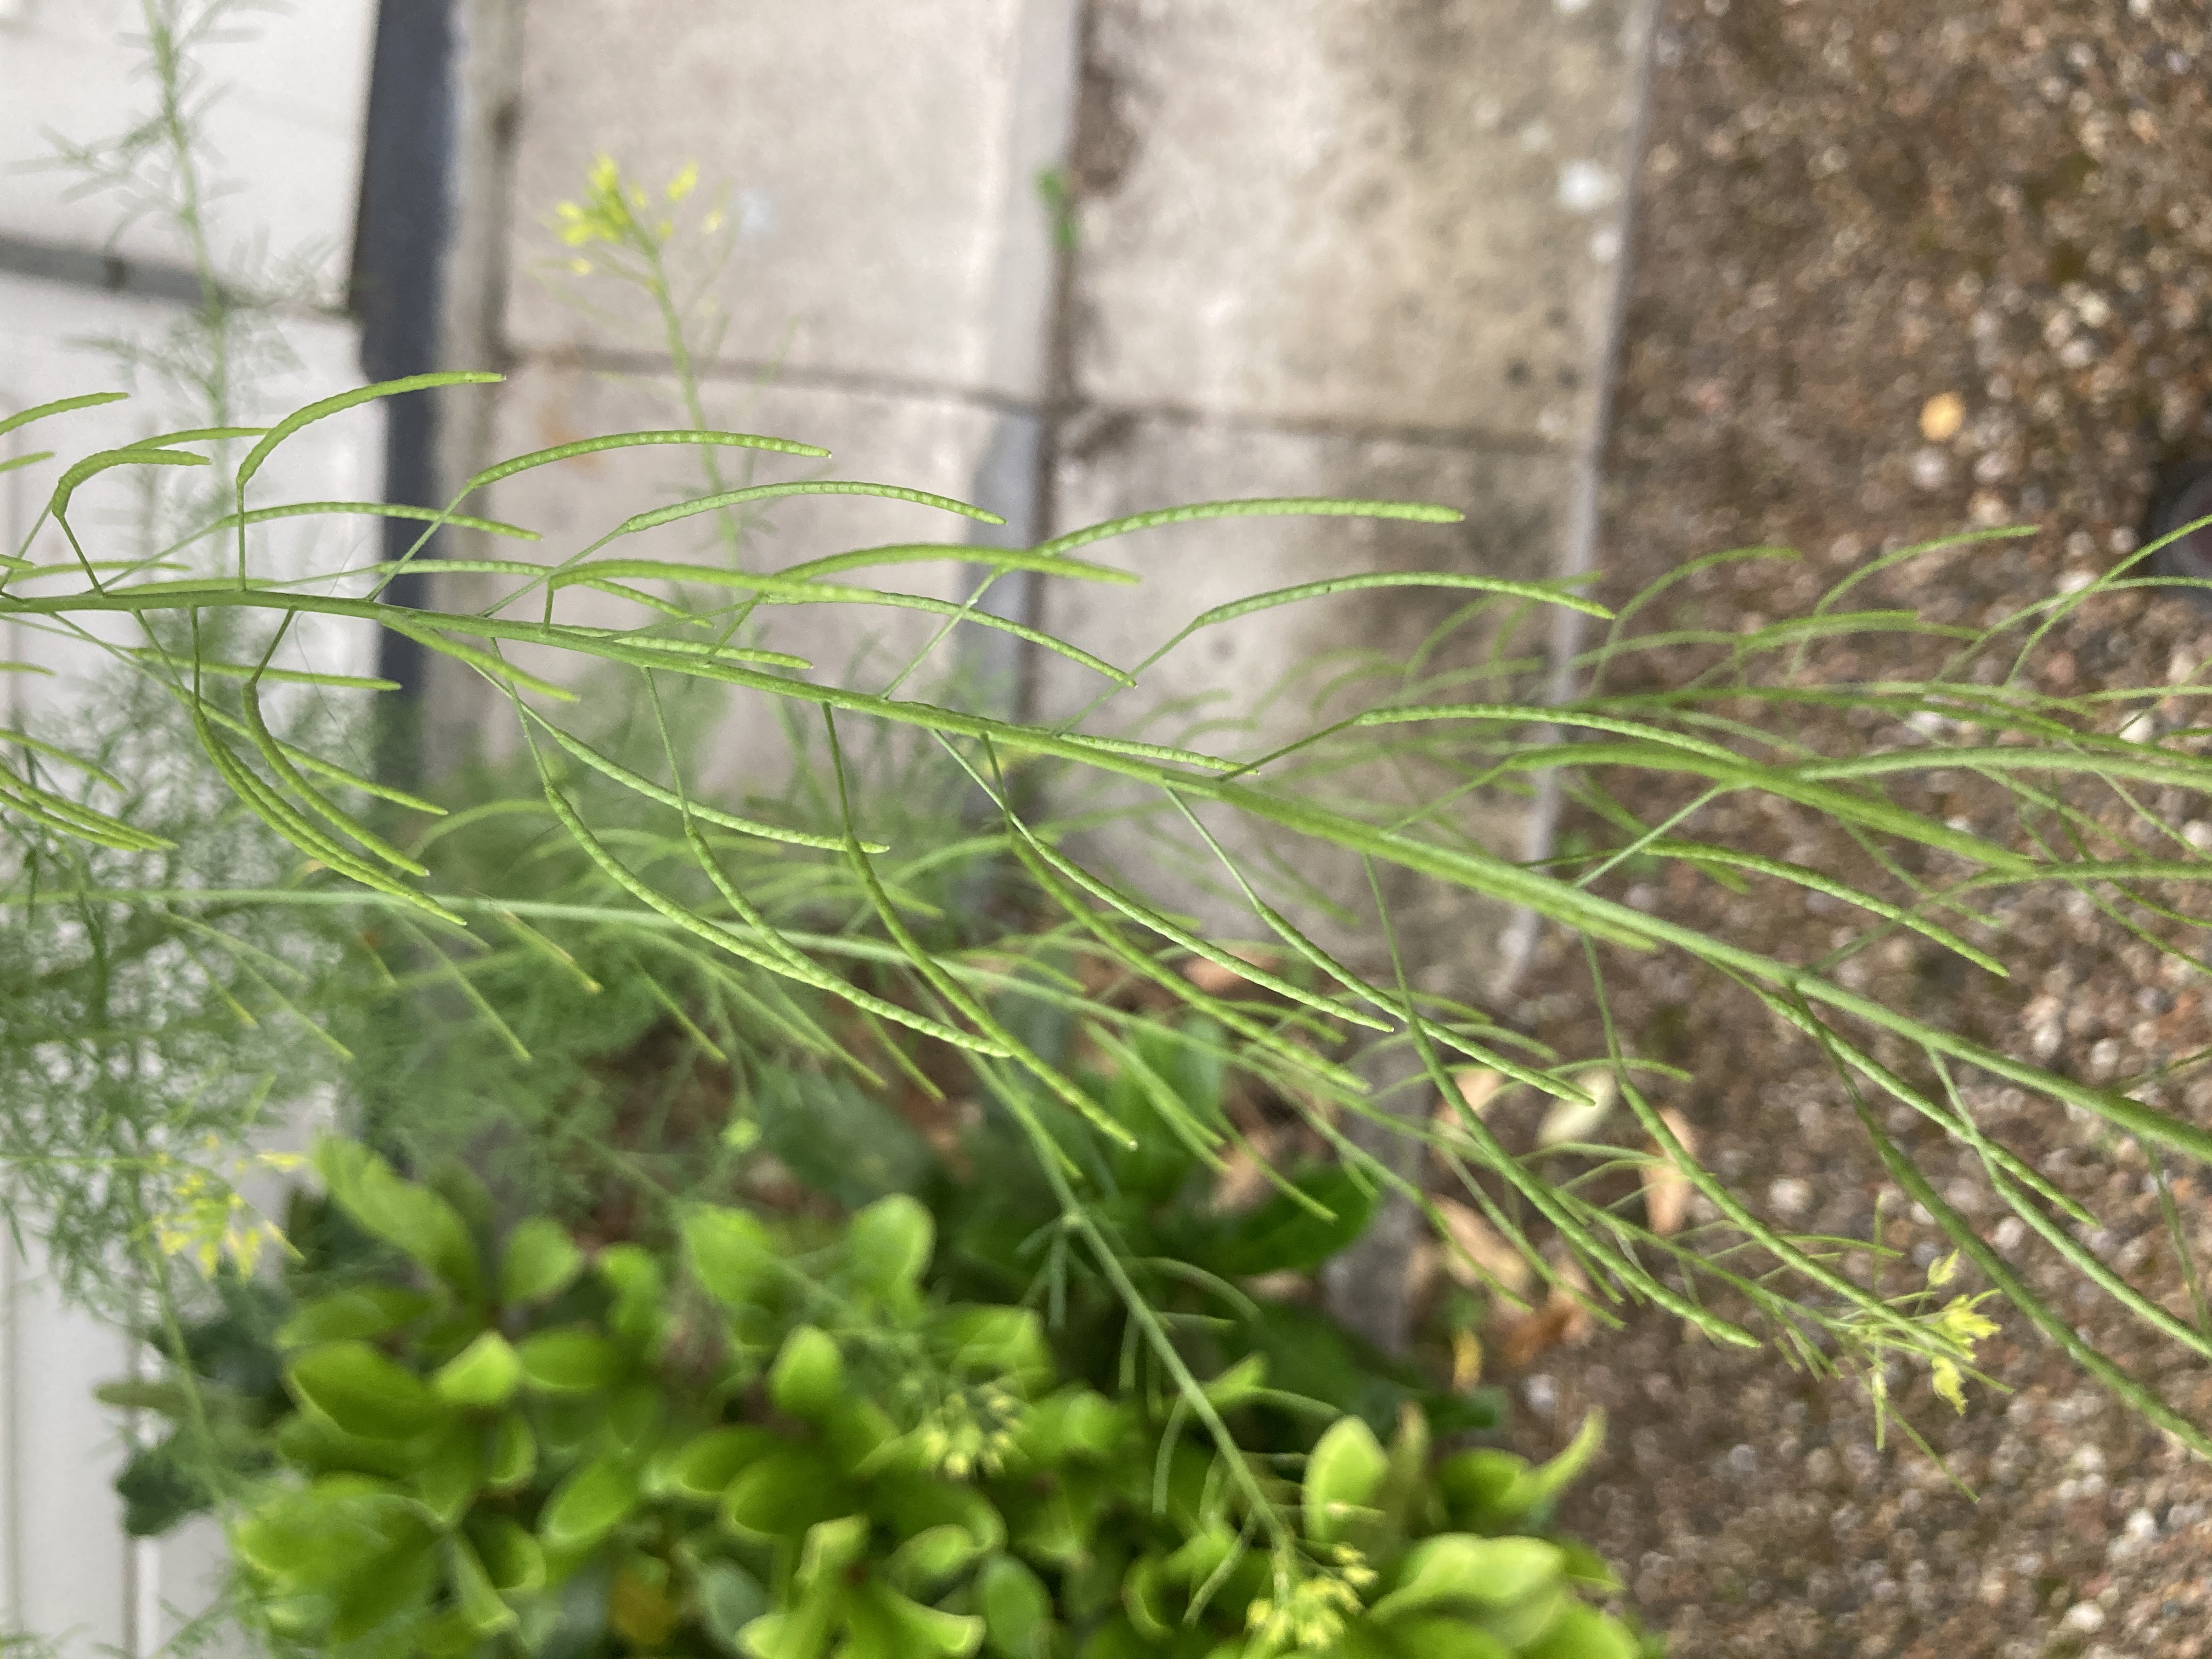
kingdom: Plantae
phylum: Tracheophyta
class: Magnoliopsida
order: Brassicales
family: Brassicaceae
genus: Descurainia
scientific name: Descurainia sophia
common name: Finbladet vejsennep
